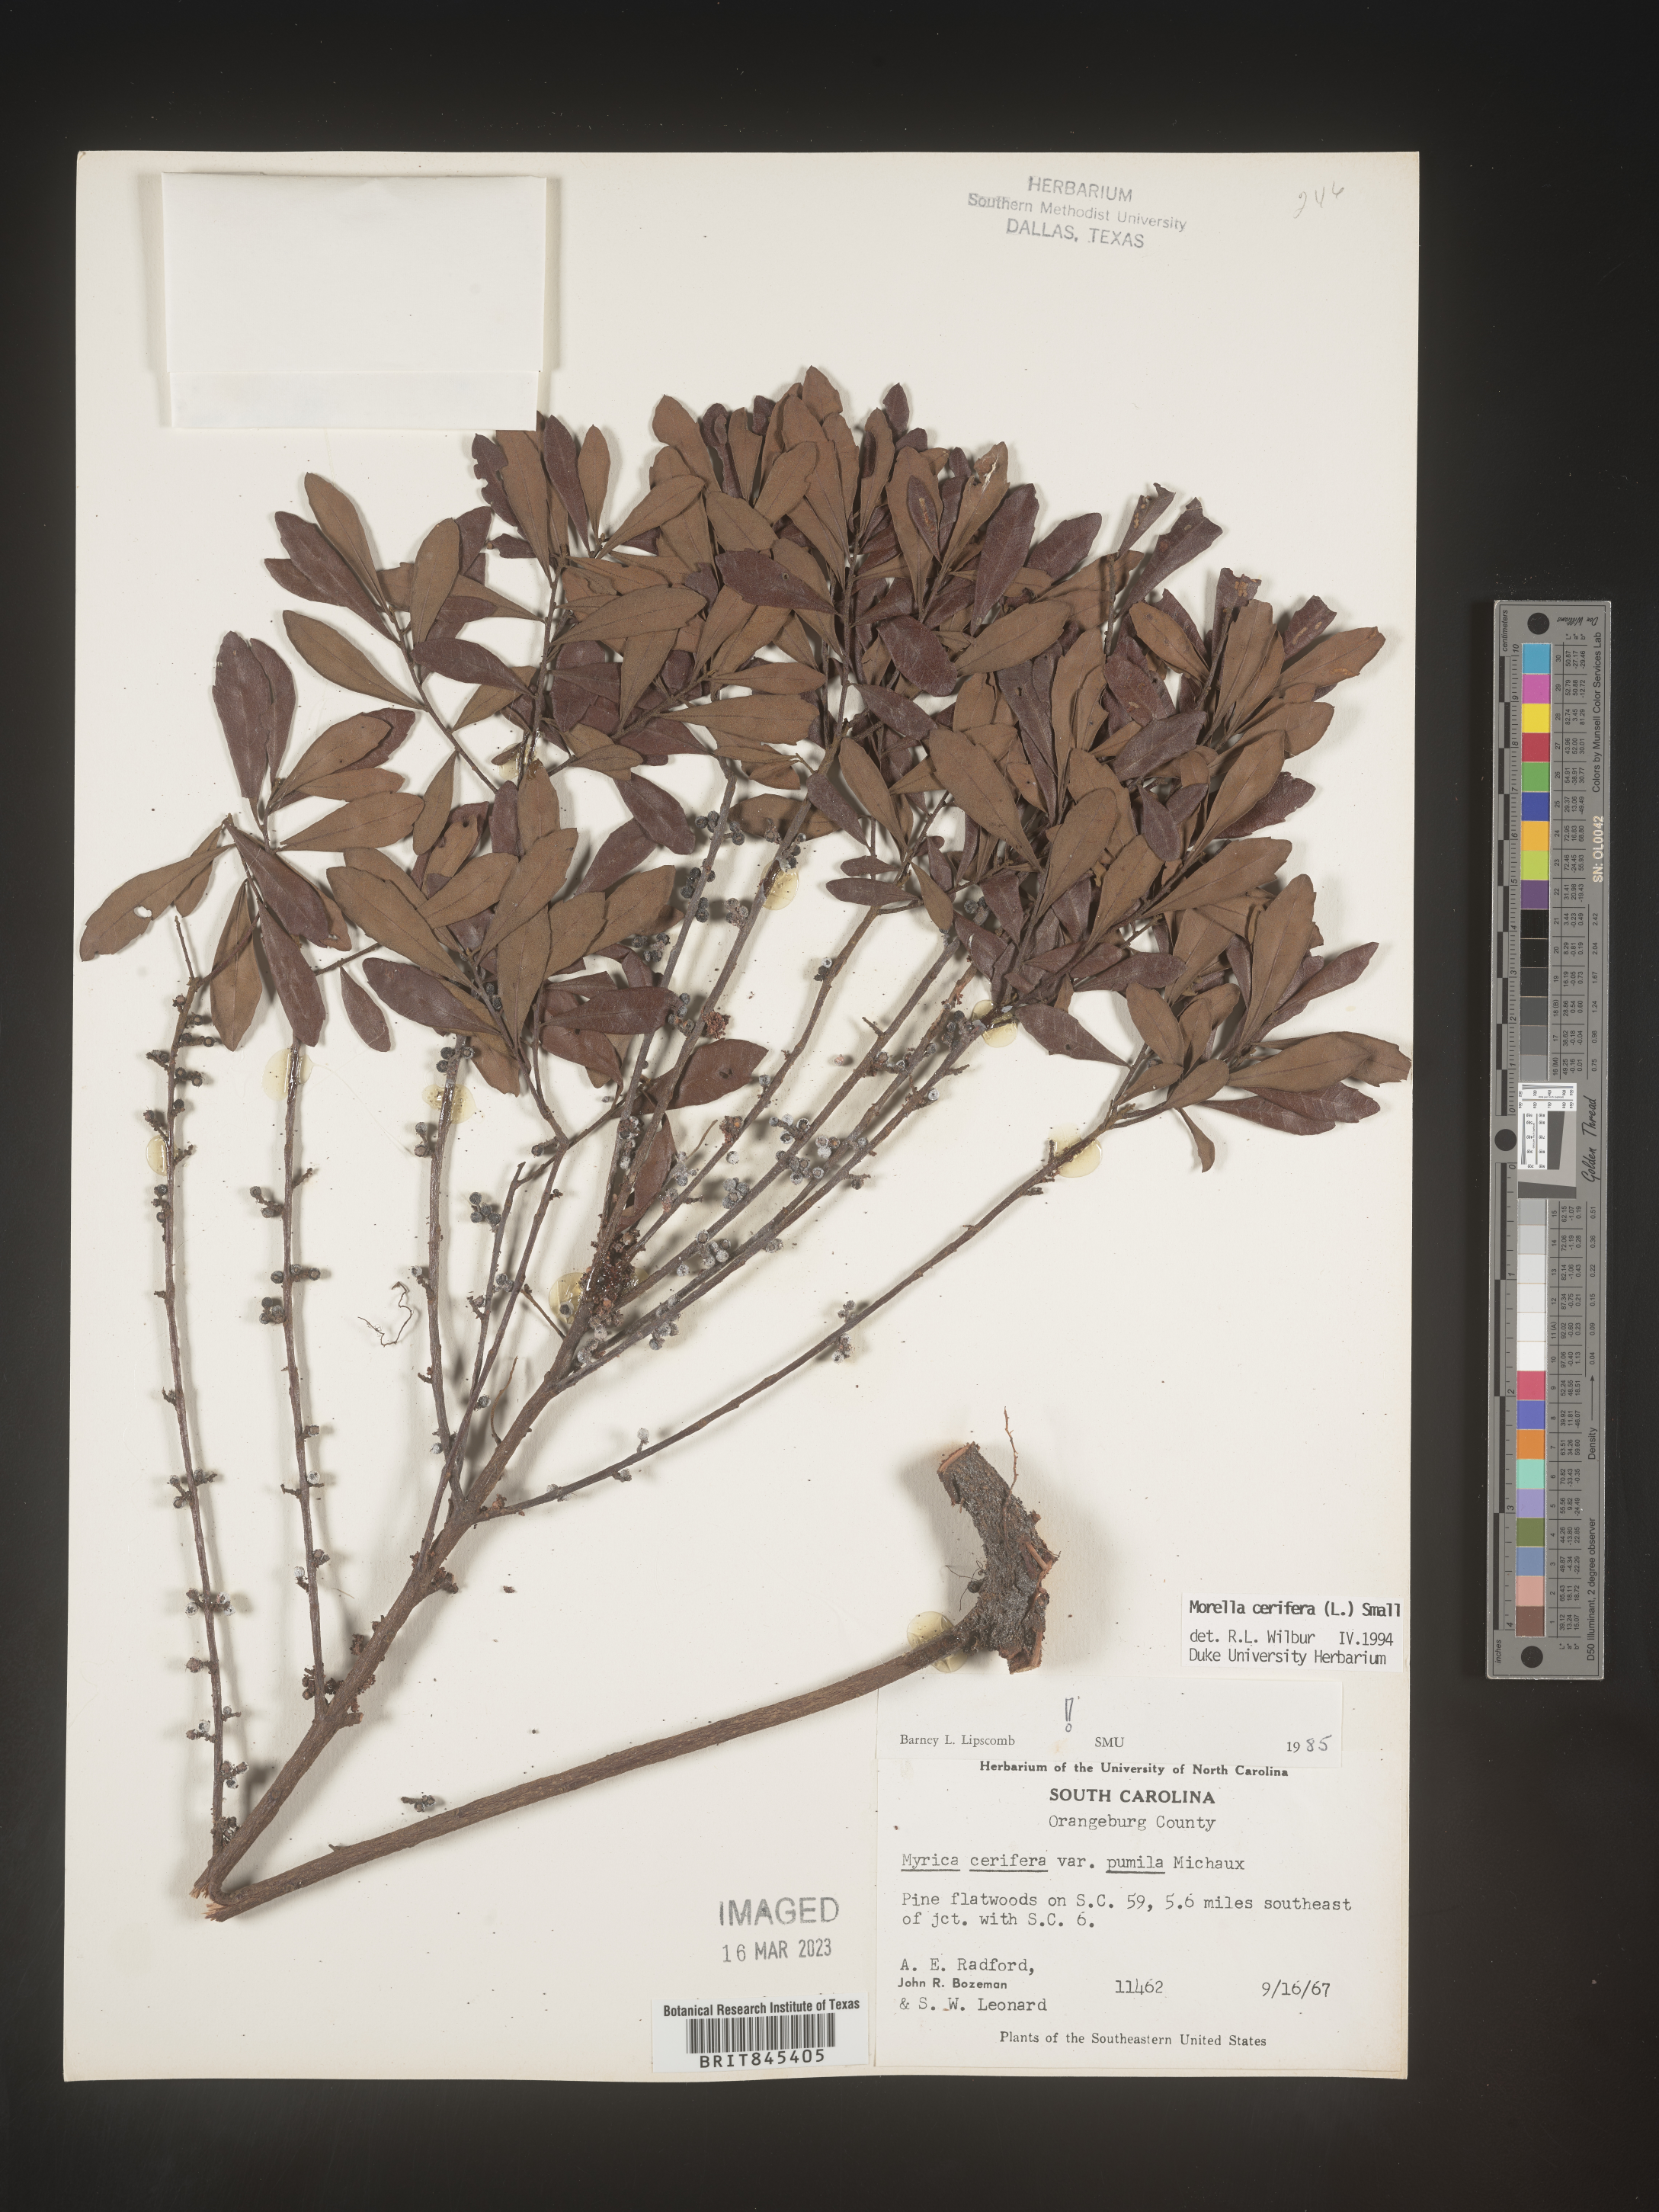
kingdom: Plantae
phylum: Tracheophyta
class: Magnoliopsida
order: Fagales
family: Myricaceae
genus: Morella
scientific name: Morella cerifera
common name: Wax myrtle
